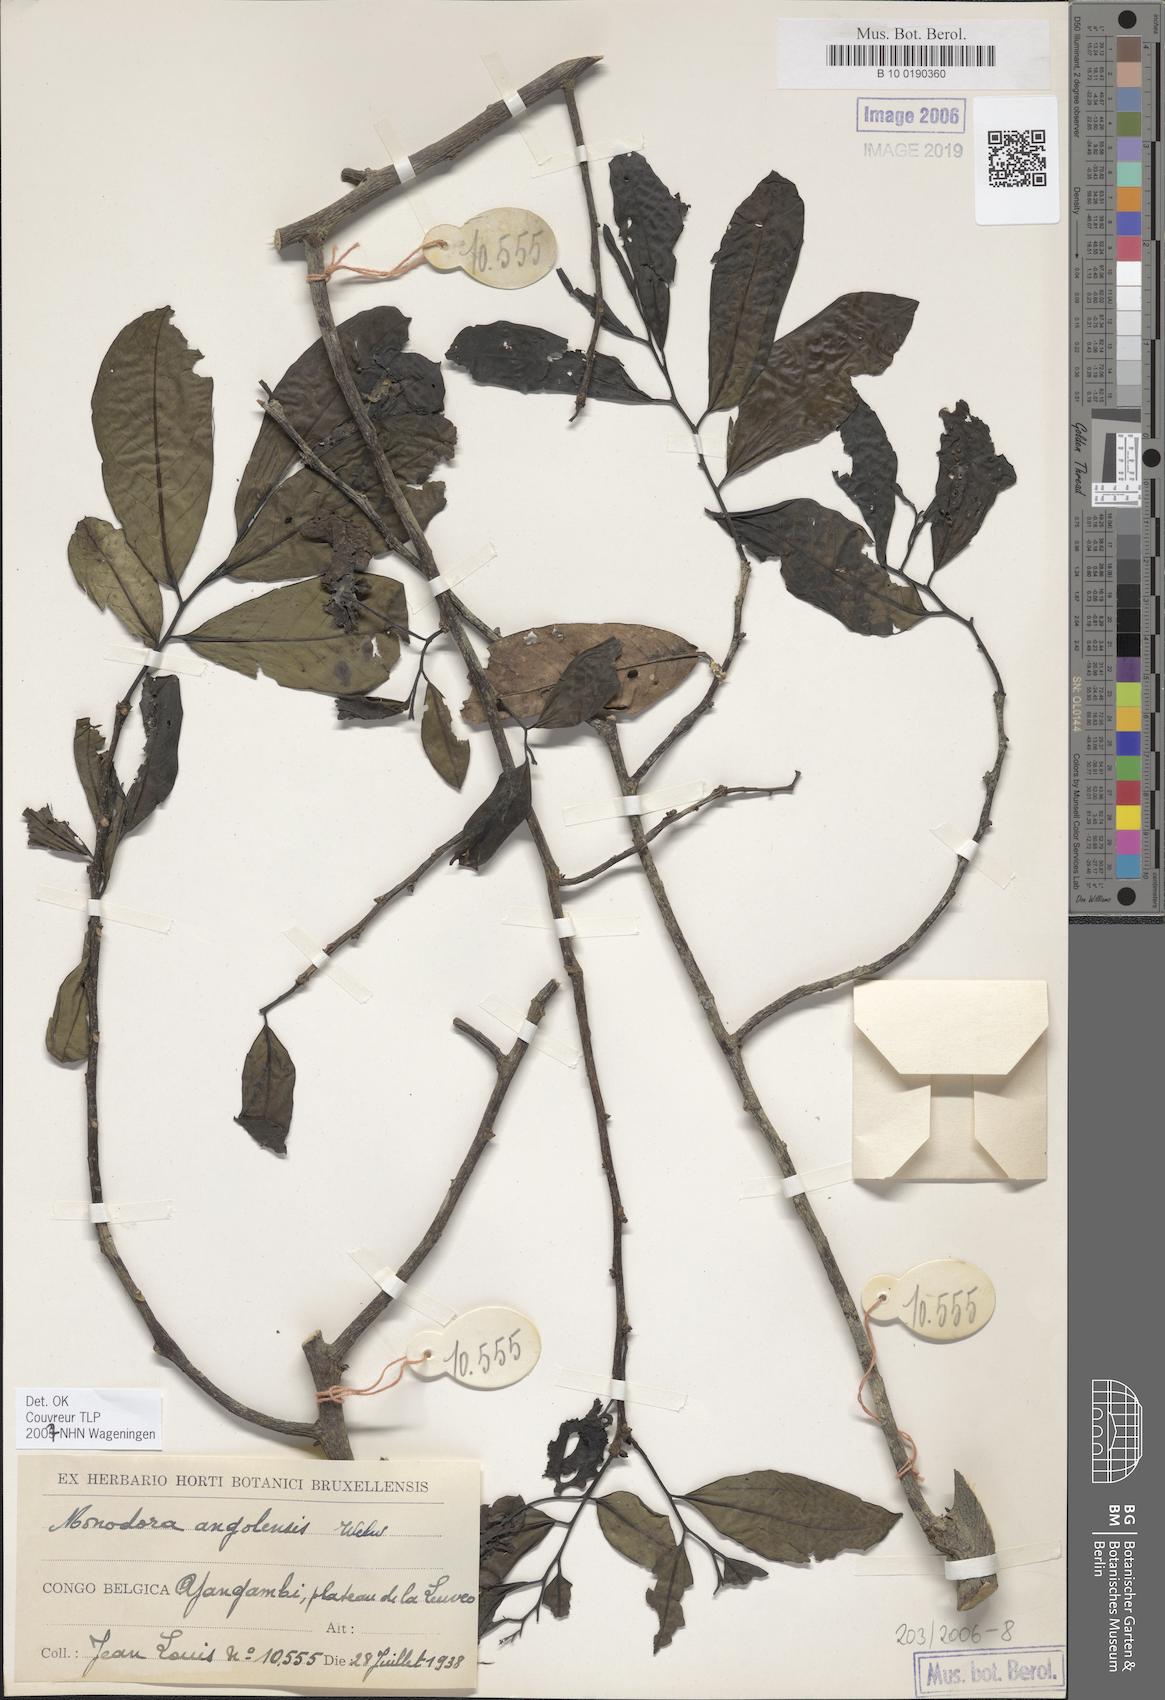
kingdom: Plantae
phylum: Tracheophyta
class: Magnoliopsida
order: Magnoliales
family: Annonaceae
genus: Monodora
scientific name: Monodora angolensis
